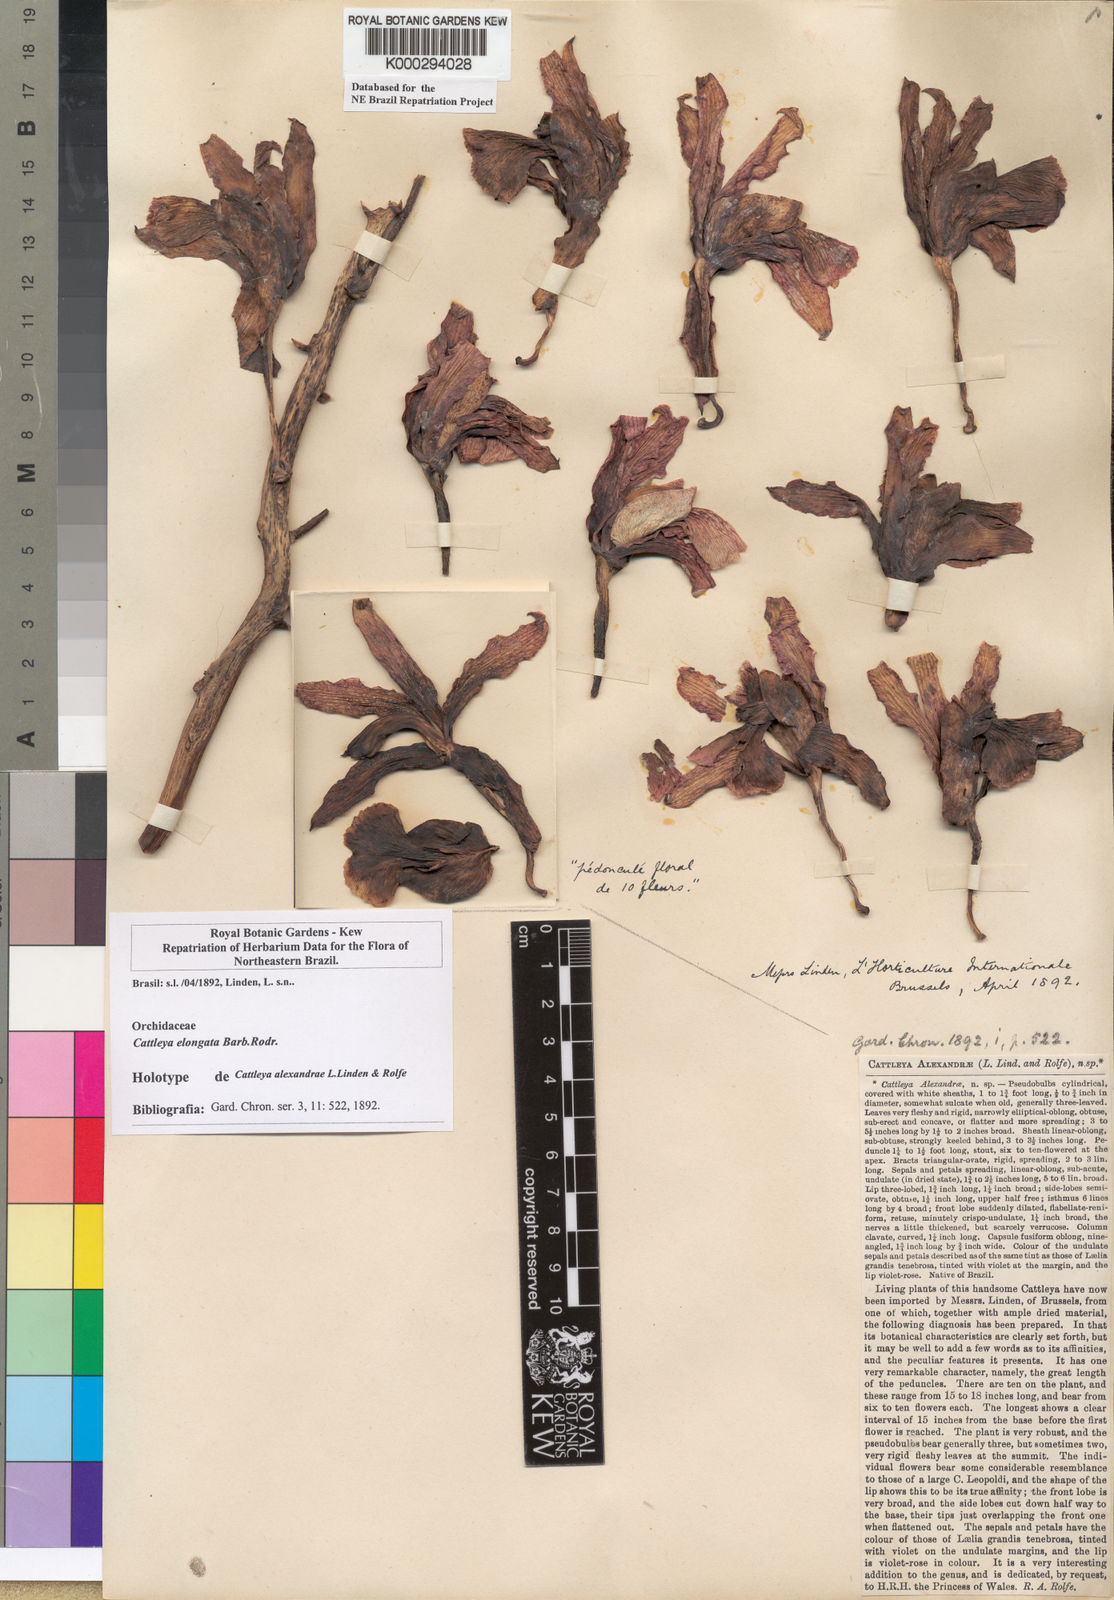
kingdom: Plantae
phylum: Tracheophyta
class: Liliopsida
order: Asparagales
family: Orchidaceae
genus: Cattleya
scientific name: Cattleya elongata
